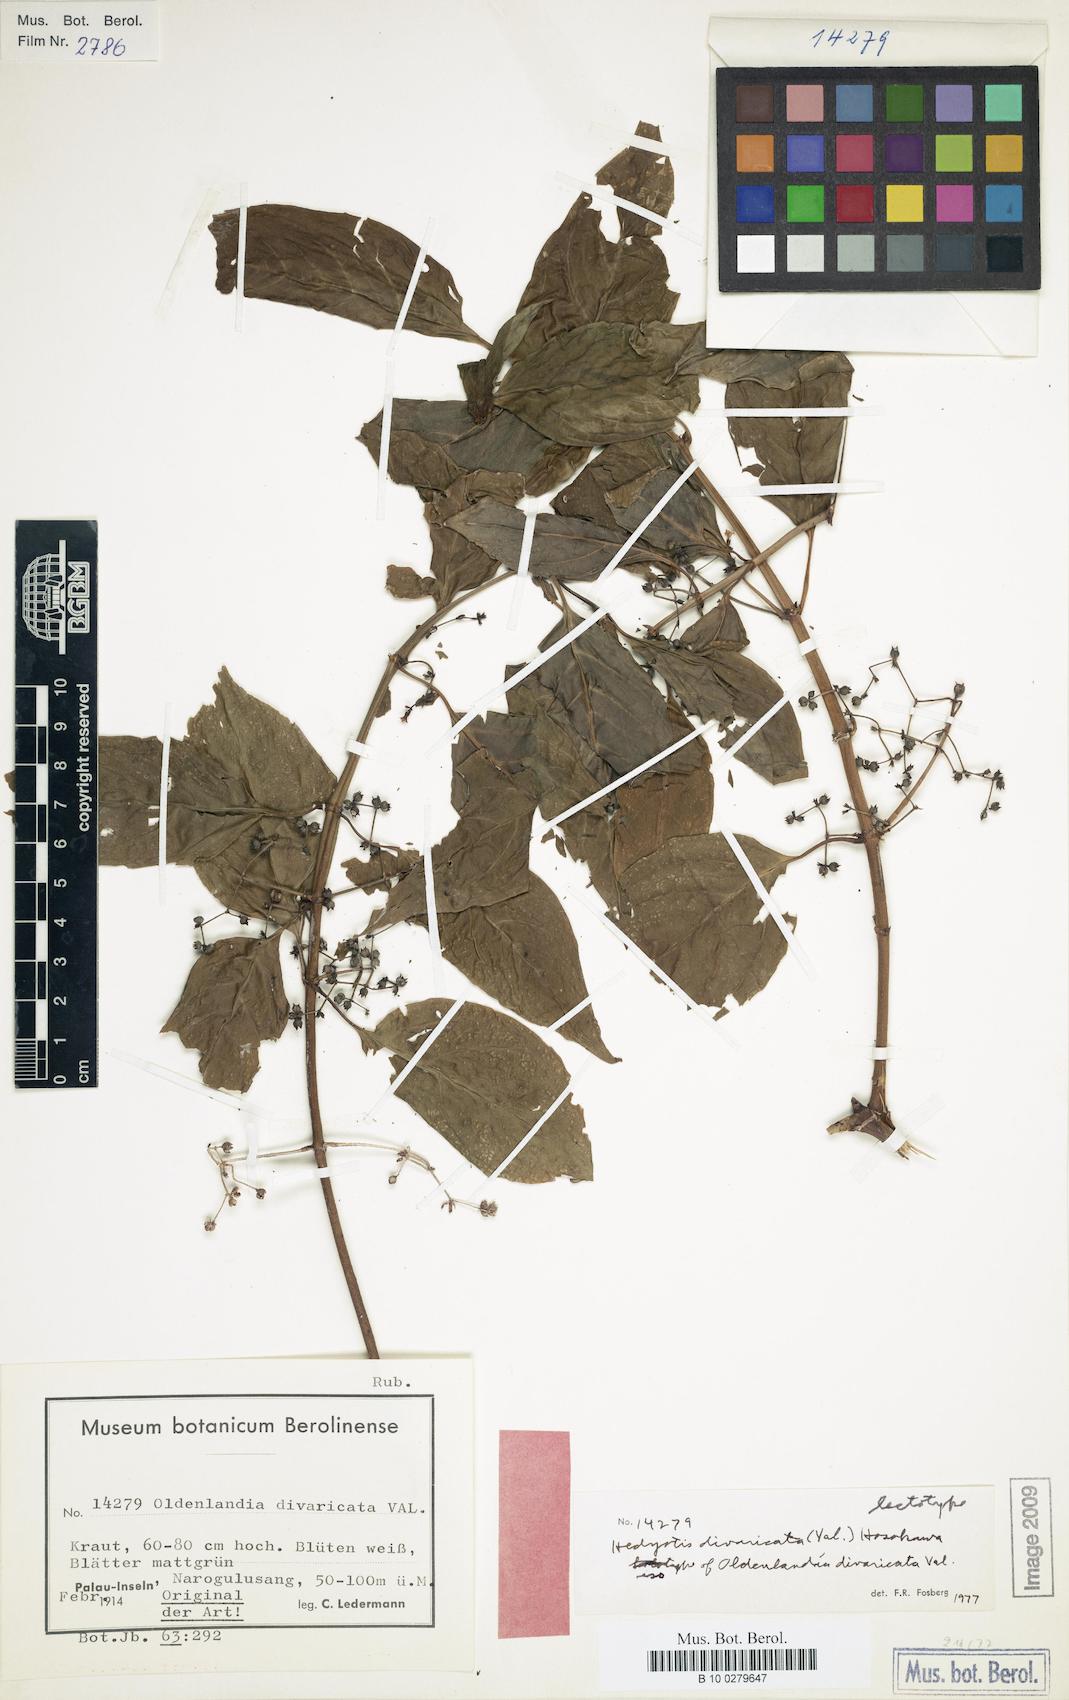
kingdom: Plantae
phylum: Tracheophyta
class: Magnoliopsida
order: Gentianales
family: Rubiaceae
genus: Hedyotis
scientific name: Hedyotis divaricata
